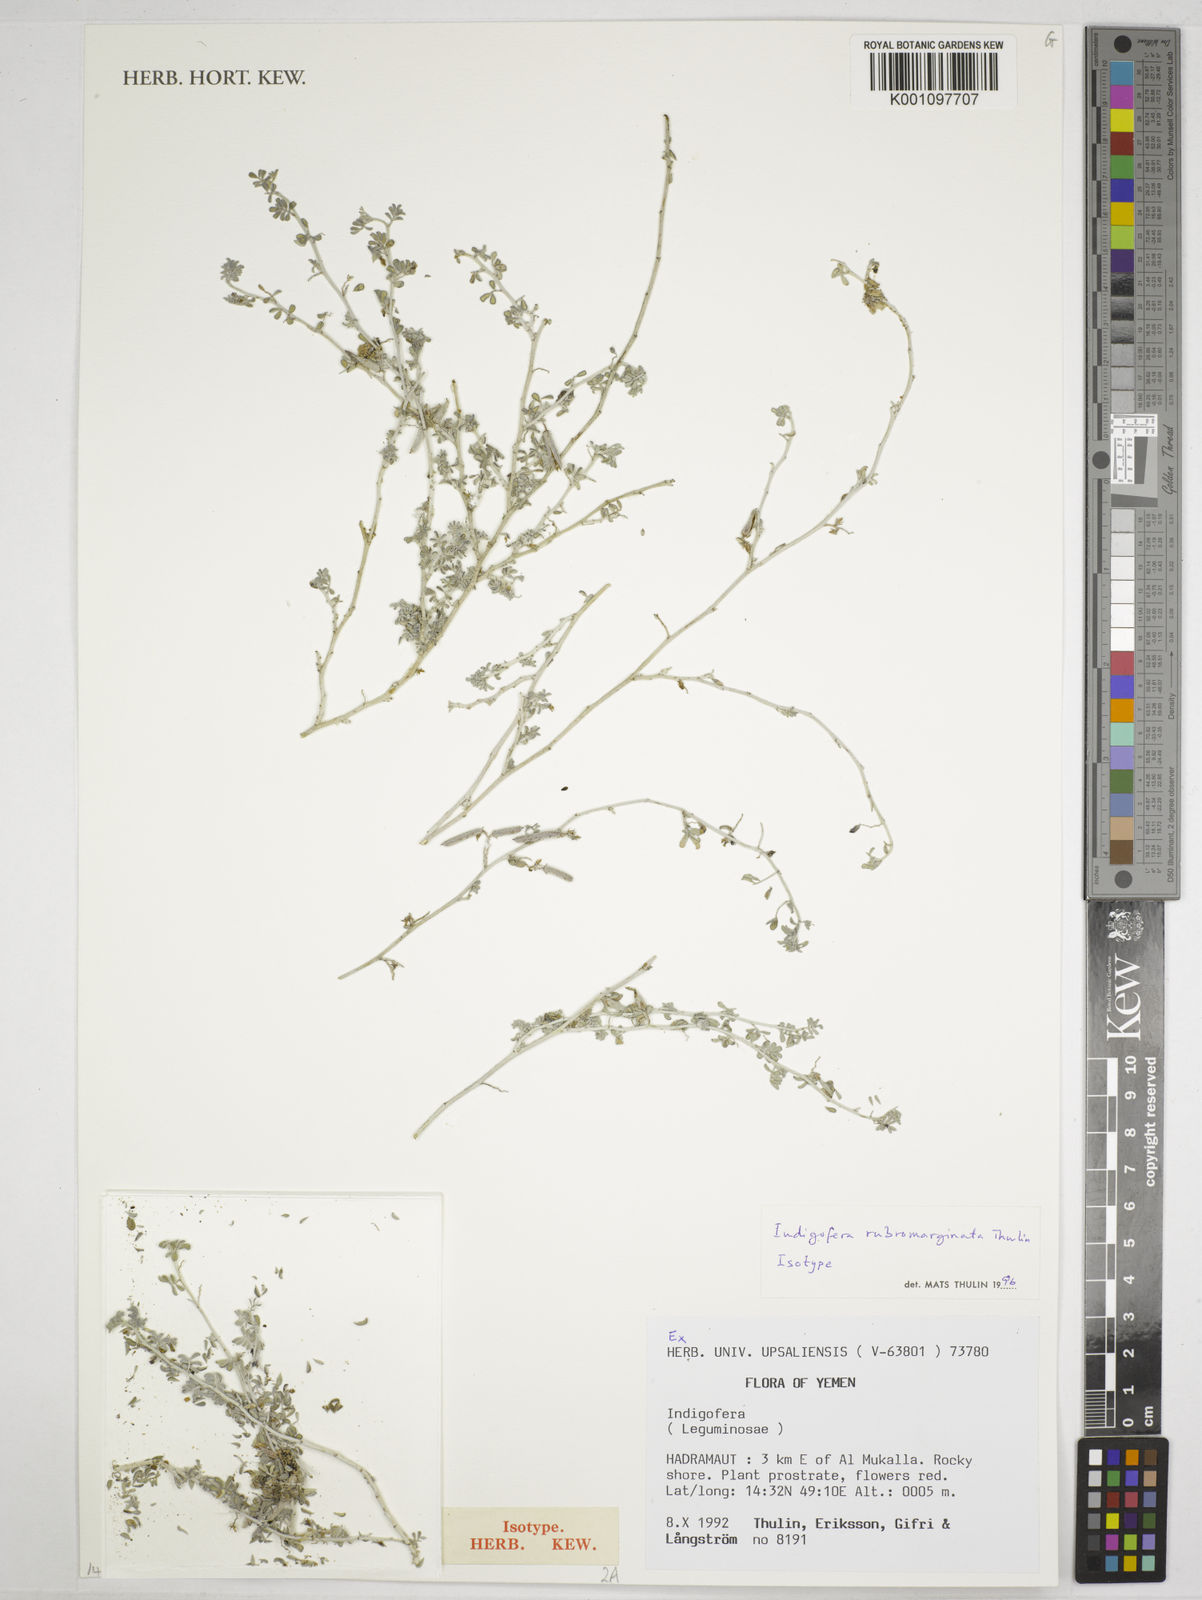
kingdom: Plantae
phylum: Tracheophyta
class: Magnoliopsida
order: Fabales
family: Fabaceae
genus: Indigofera
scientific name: Indigofera rubromarginata
